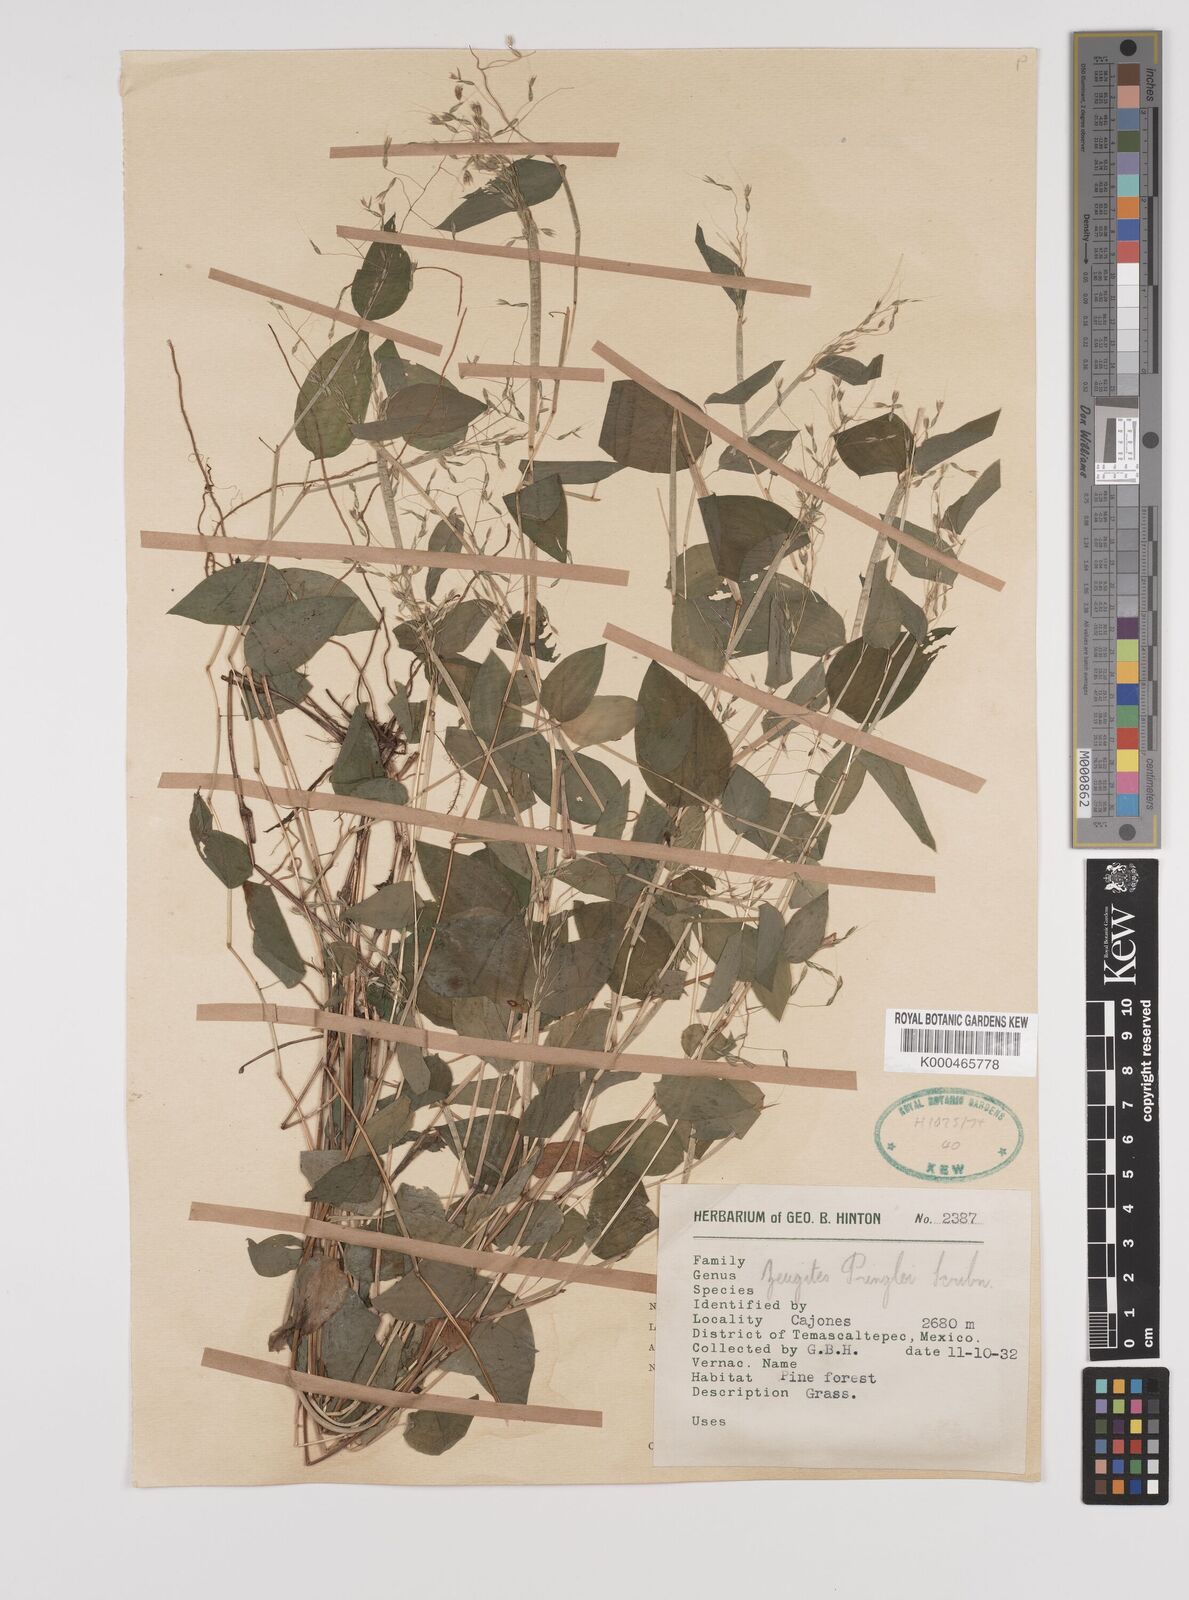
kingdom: Plantae
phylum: Tracheophyta
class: Liliopsida
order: Poales
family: Poaceae
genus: Zeugites
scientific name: Zeugites americanus
